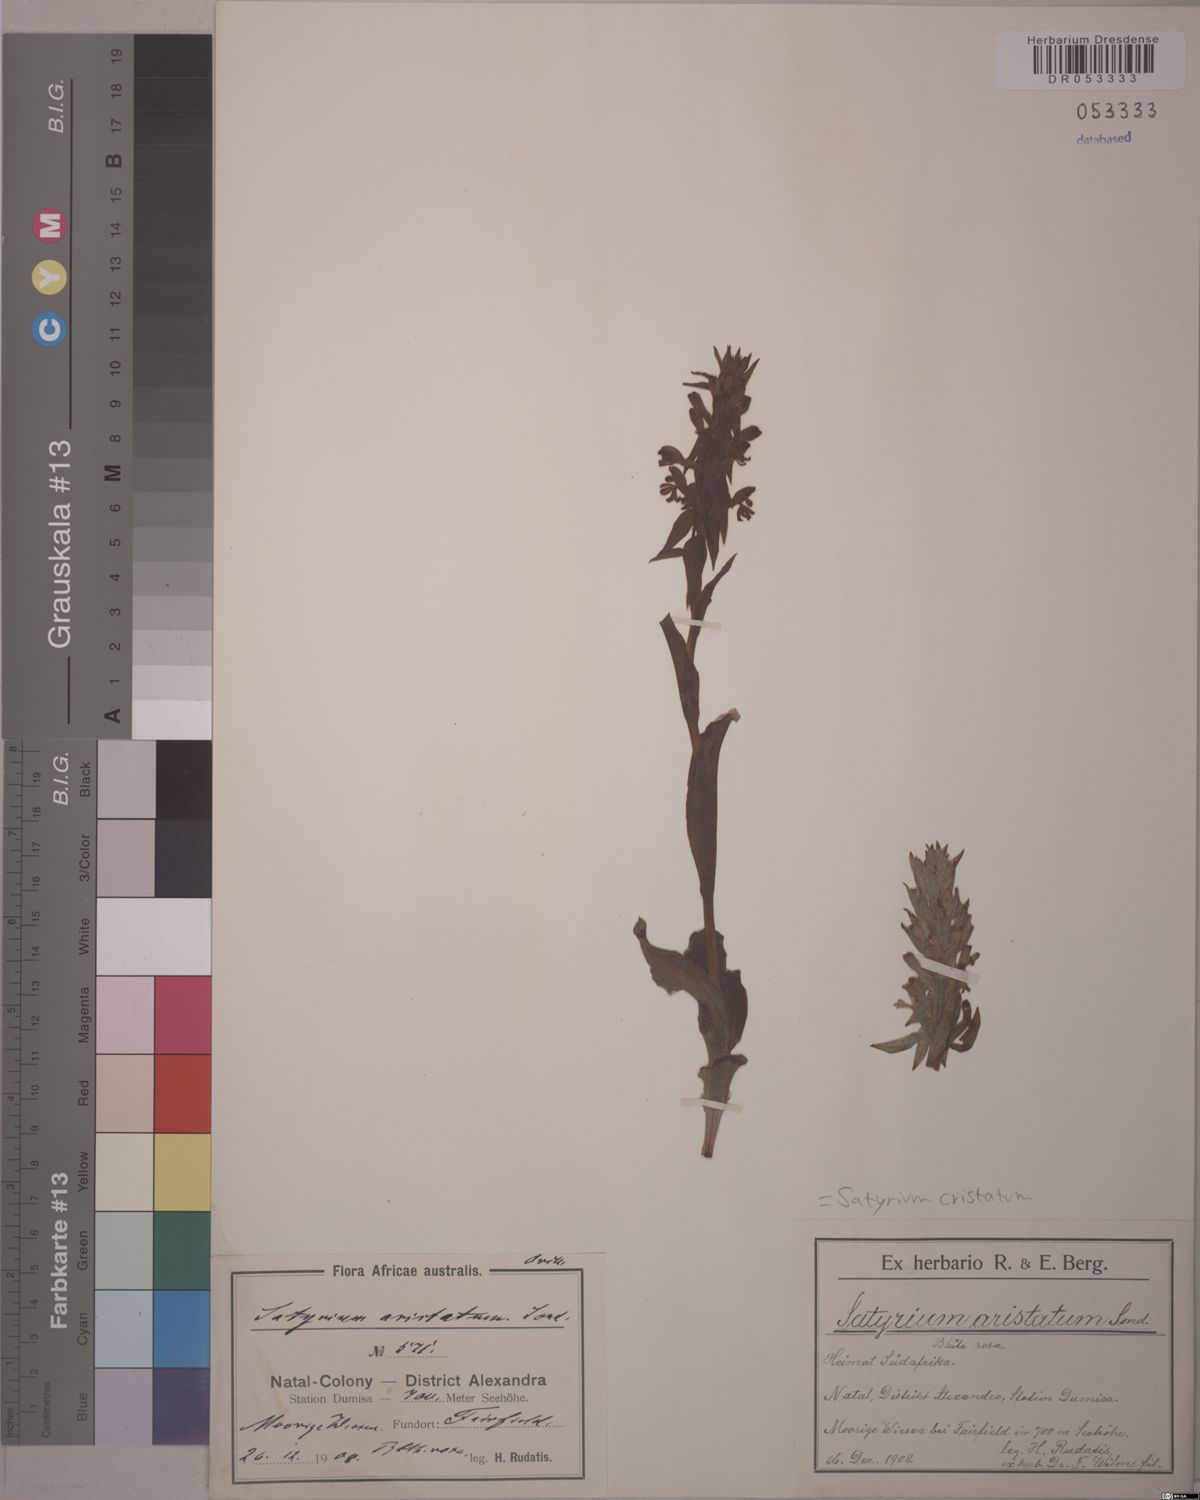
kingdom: Plantae
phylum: Tracheophyta
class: Liliopsida
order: Asparagales
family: Orchidaceae
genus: Satyrium
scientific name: Satyrium cristatum
